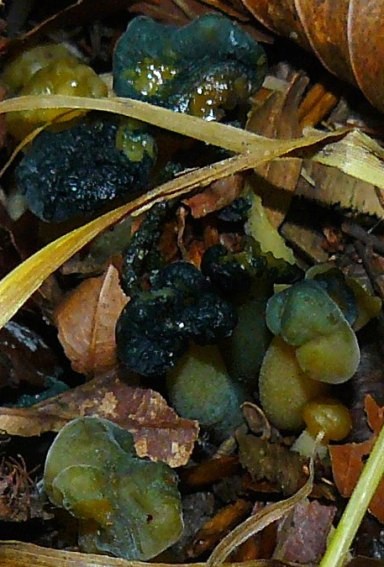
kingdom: Fungi
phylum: Ascomycota
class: Leotiomycetes
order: Leotiales
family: Leotiaceae
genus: Leotia
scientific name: Leotia lubrica
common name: ravsvamp
